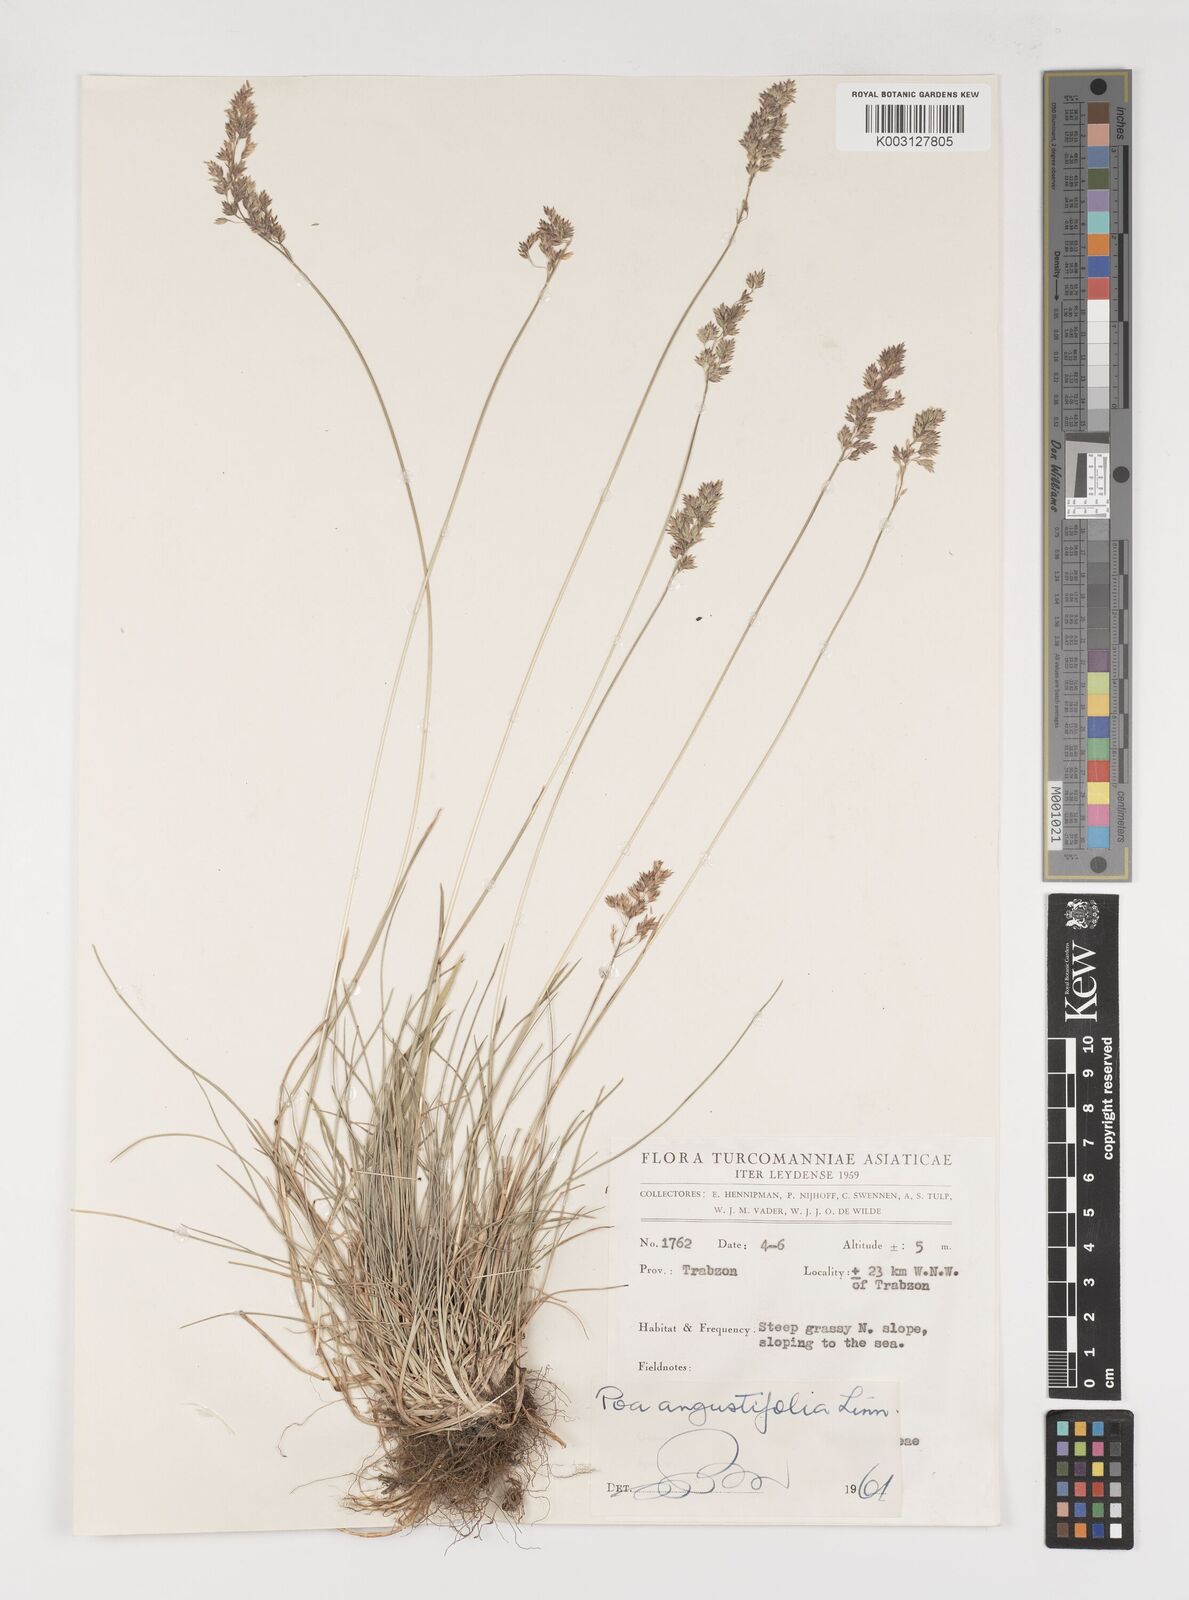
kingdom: Plantae
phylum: Tracheophyta
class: Liliopsida
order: Poales
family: Poaceae
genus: Poa
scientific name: Poa angustifolia
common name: Narrow-leaved meadow-grass
